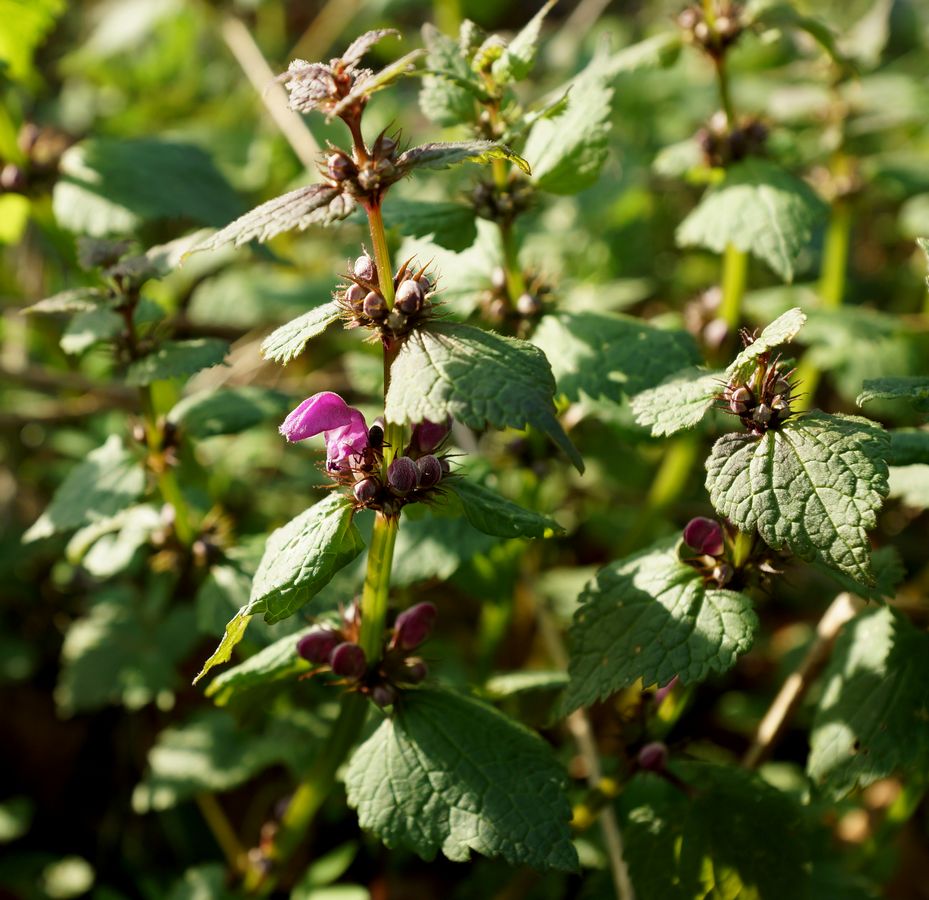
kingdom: Plantae
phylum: Tracheophyta
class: Magnoliopsida
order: Lamiales
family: Lamiaceae
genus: Lamium
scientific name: Lamium
